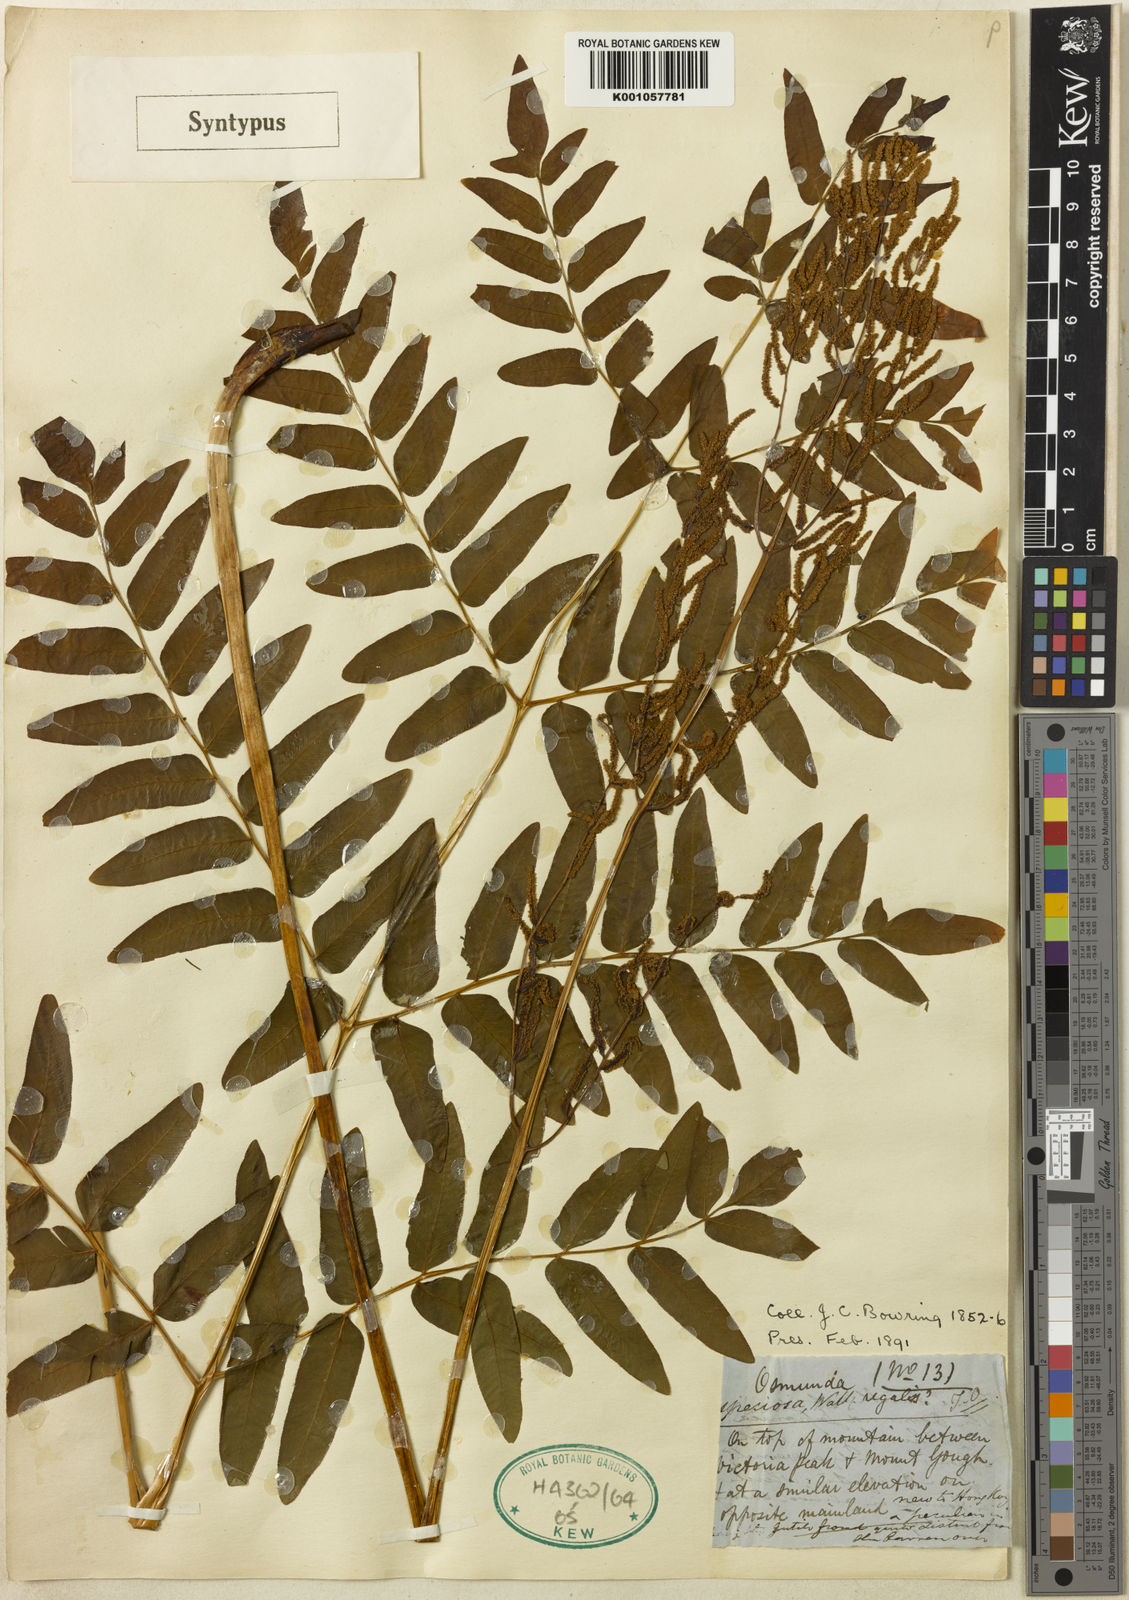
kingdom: Plantae
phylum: Tracheophyta
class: Polypodiopsida
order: Osmundales
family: Osmundaceae
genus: Osmunda
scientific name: Osmunda japonica
